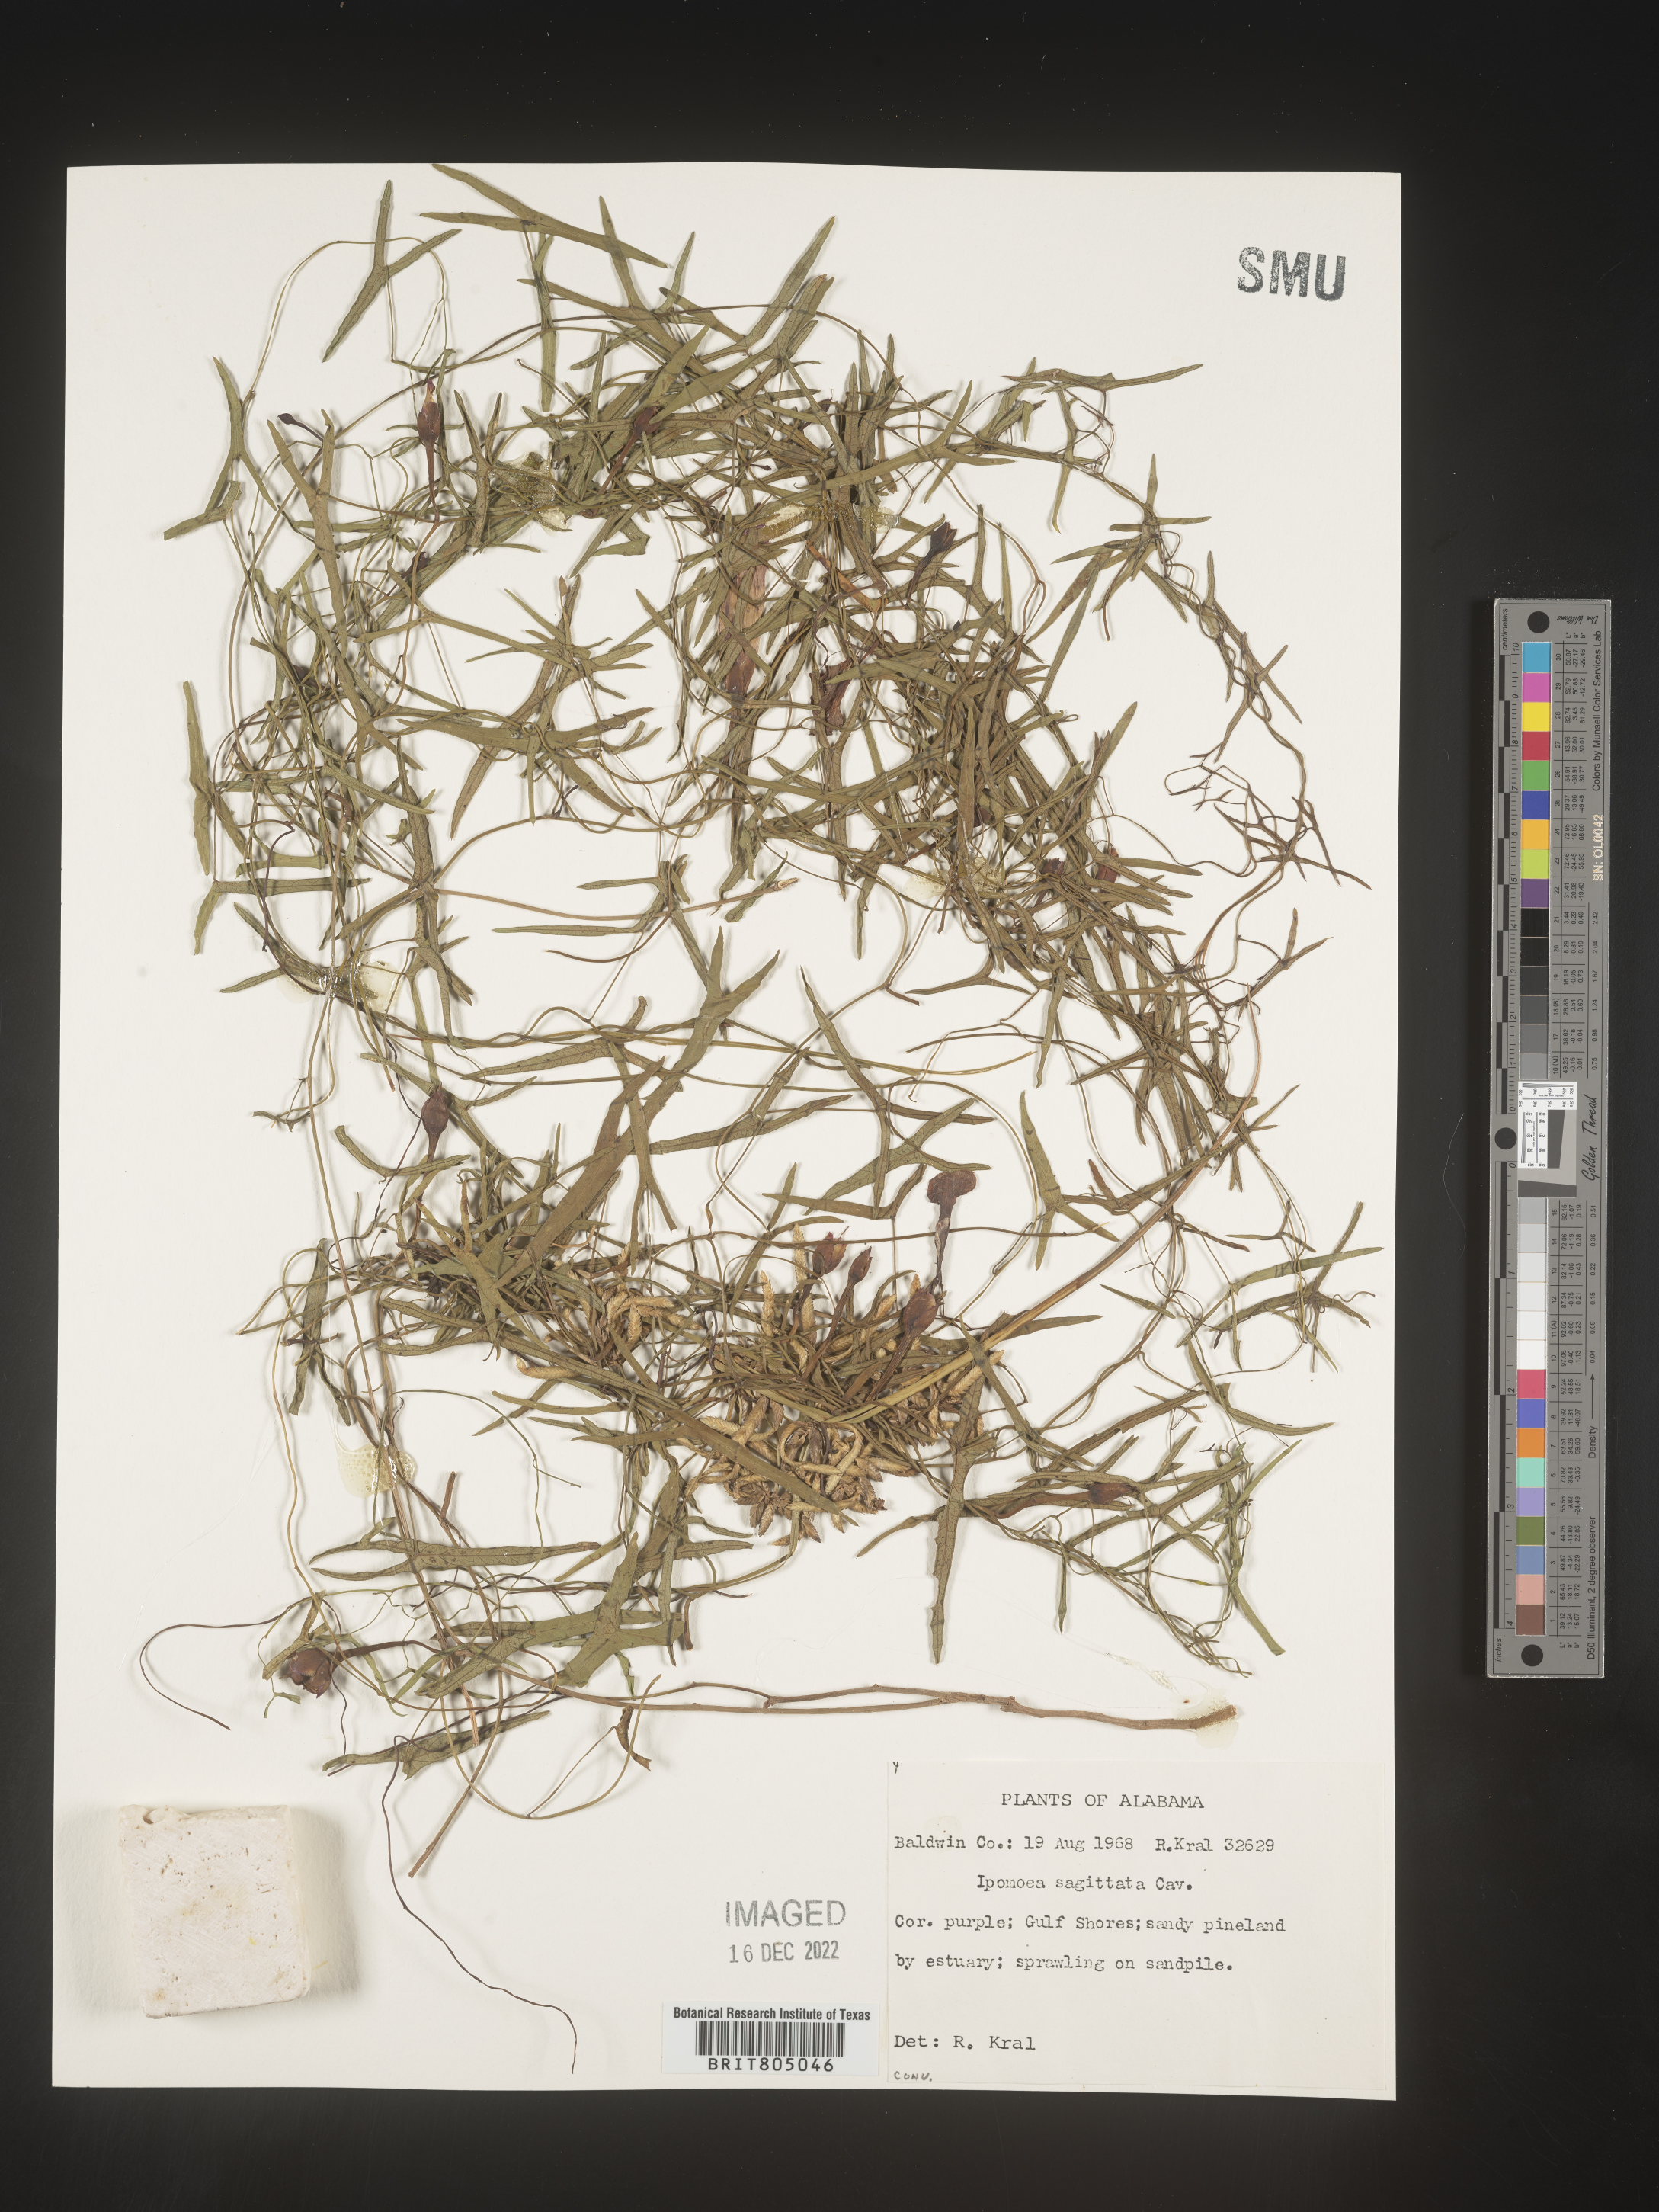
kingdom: Plantae
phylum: Tracheophyta
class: Magnoliopsida
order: Solanales
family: Convolvulaceae
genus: Ipomoea
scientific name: Ipomoea sinensis
